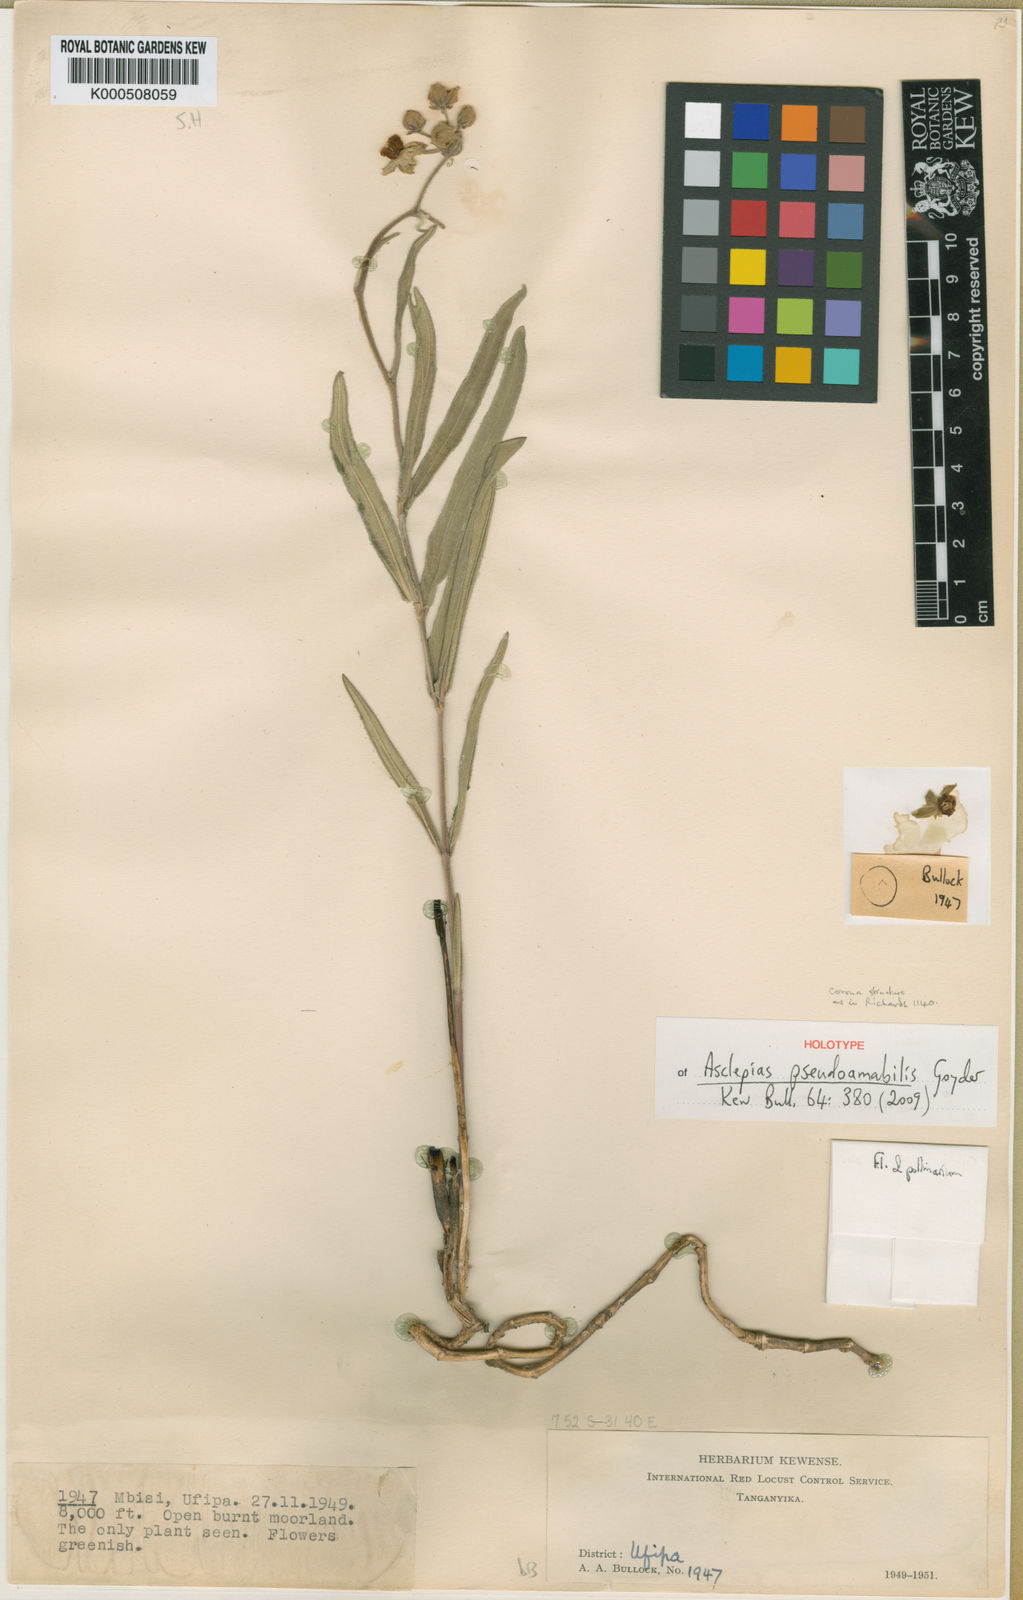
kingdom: Plantae
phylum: Tracheophyta
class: Magnoliopsida
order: Gentianales
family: Apocynaceae
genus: Asclepias
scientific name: Asclepias pseudoamabilis
